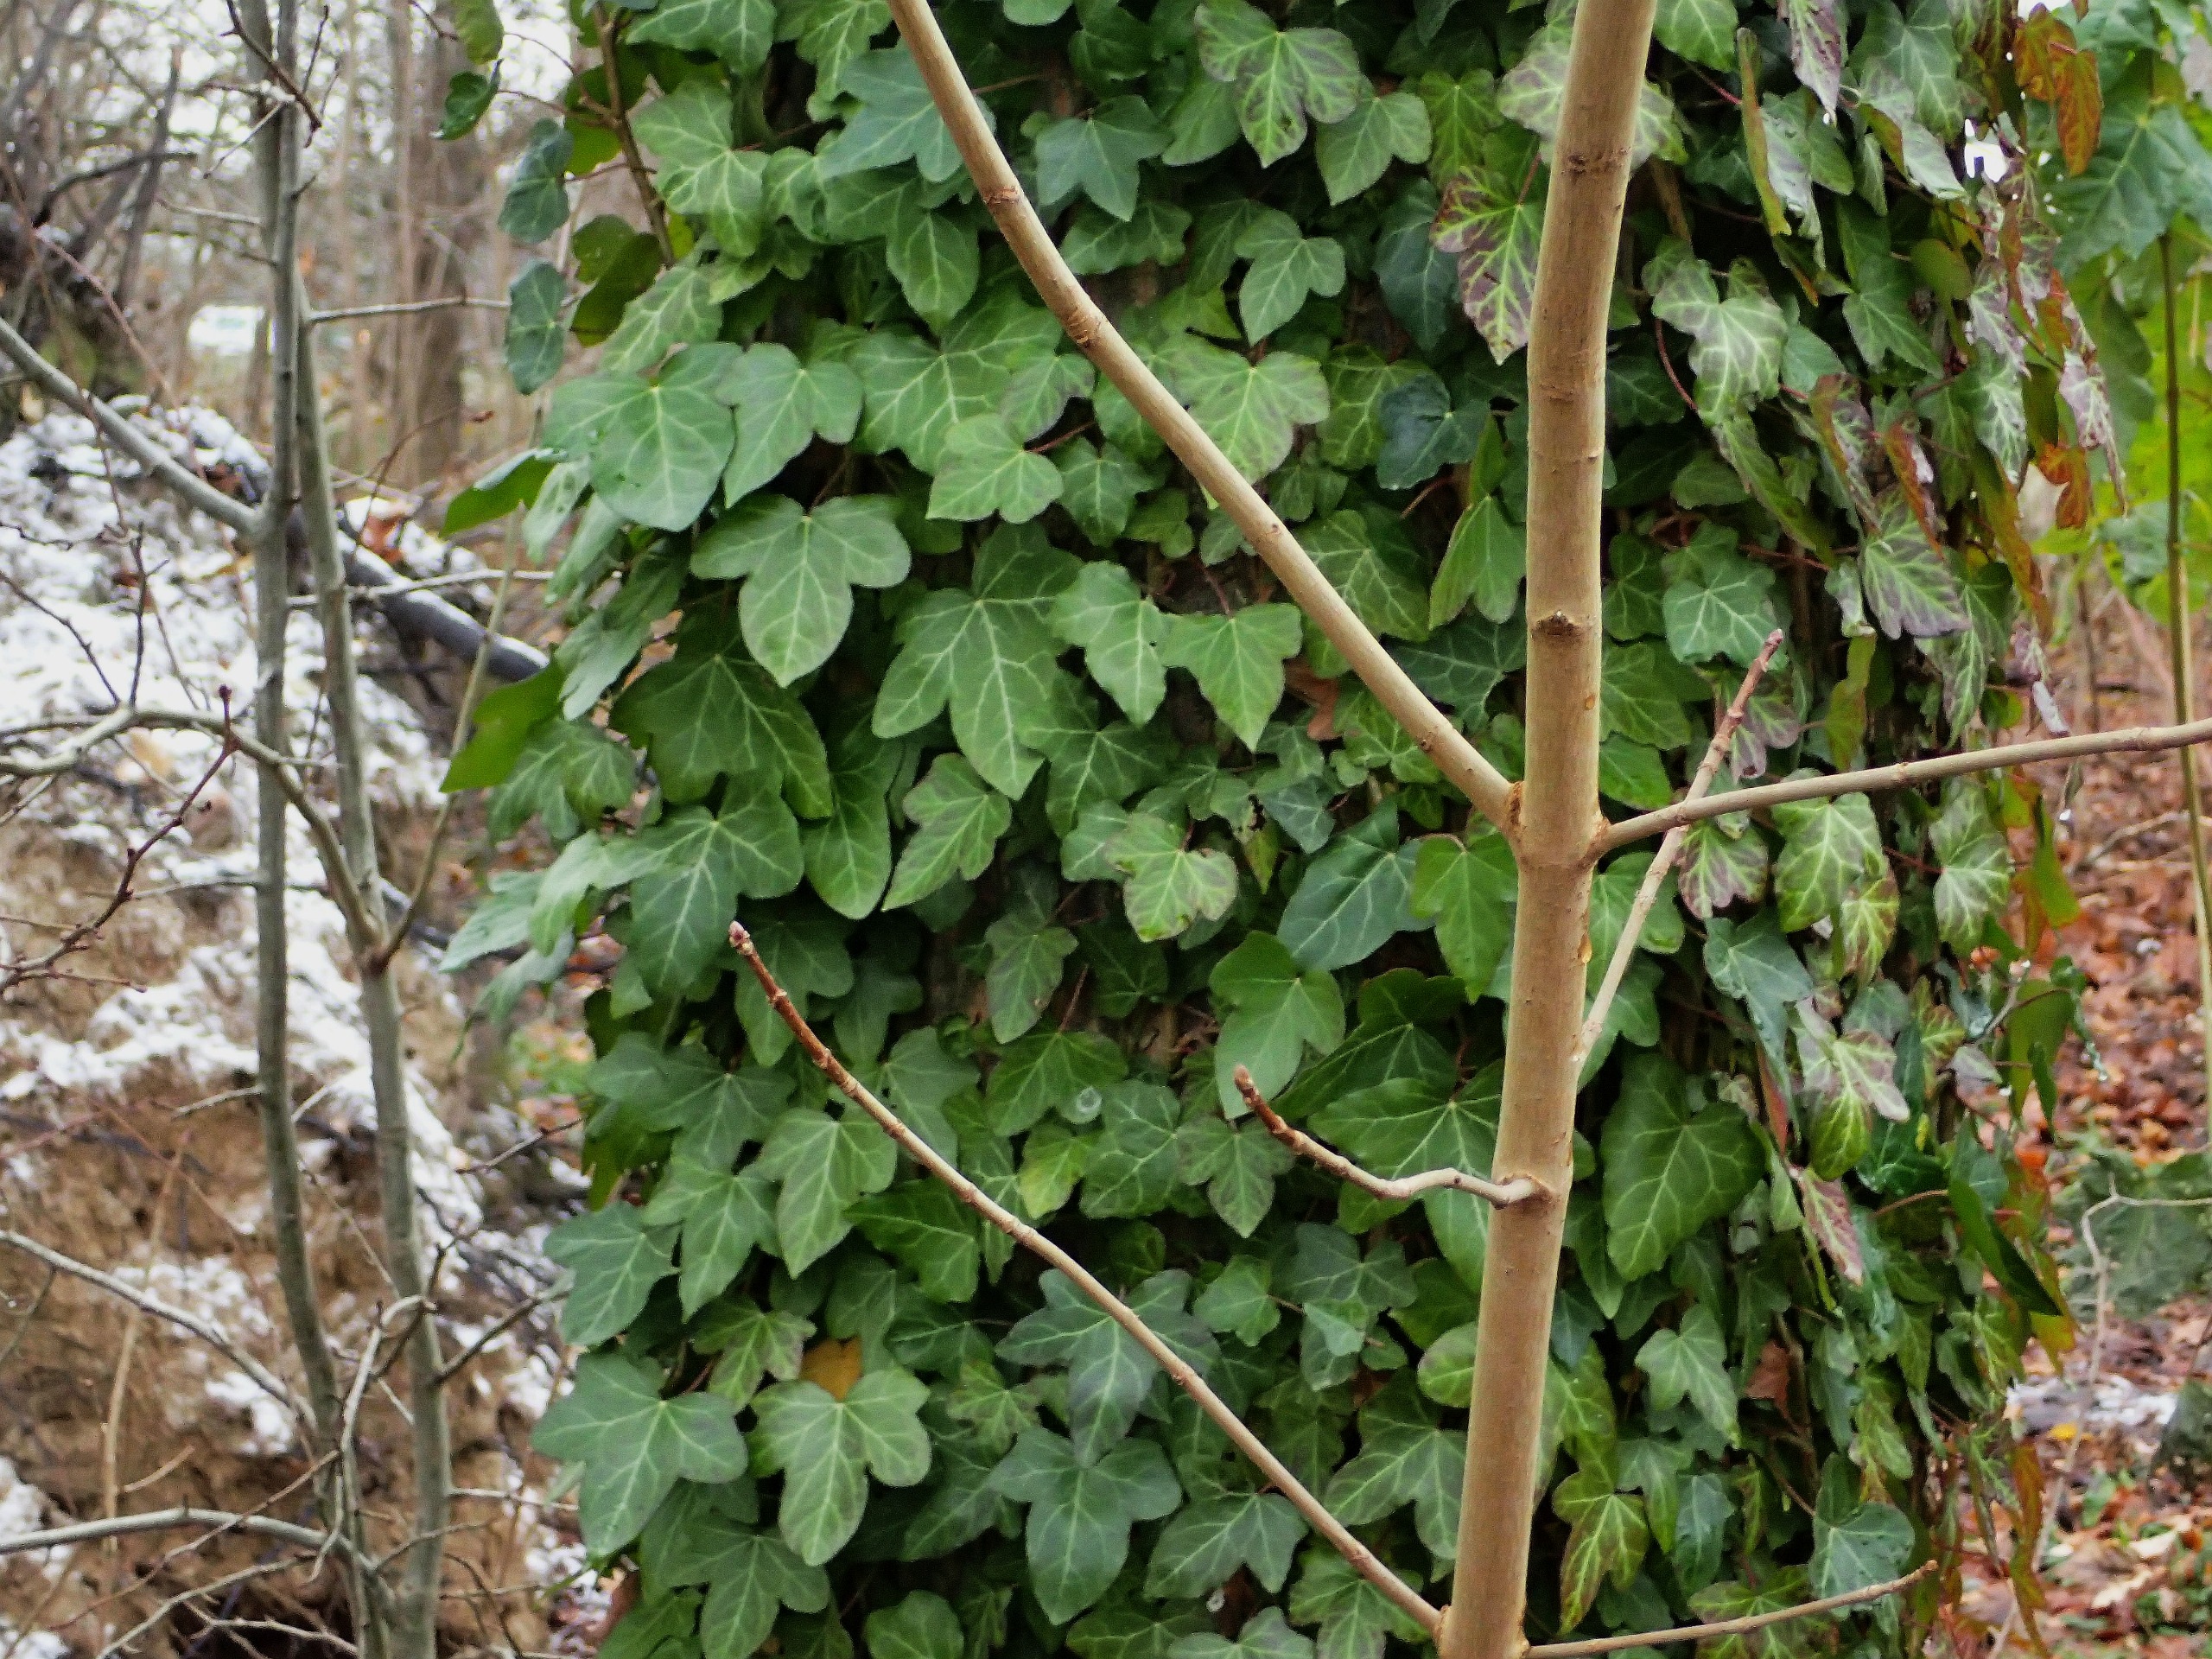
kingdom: Plantae
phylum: Tracheophyta
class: Magnoliopsida
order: Apiales
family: Araliaceae
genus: Hedera
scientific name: Hedera helix
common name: Vedbend
